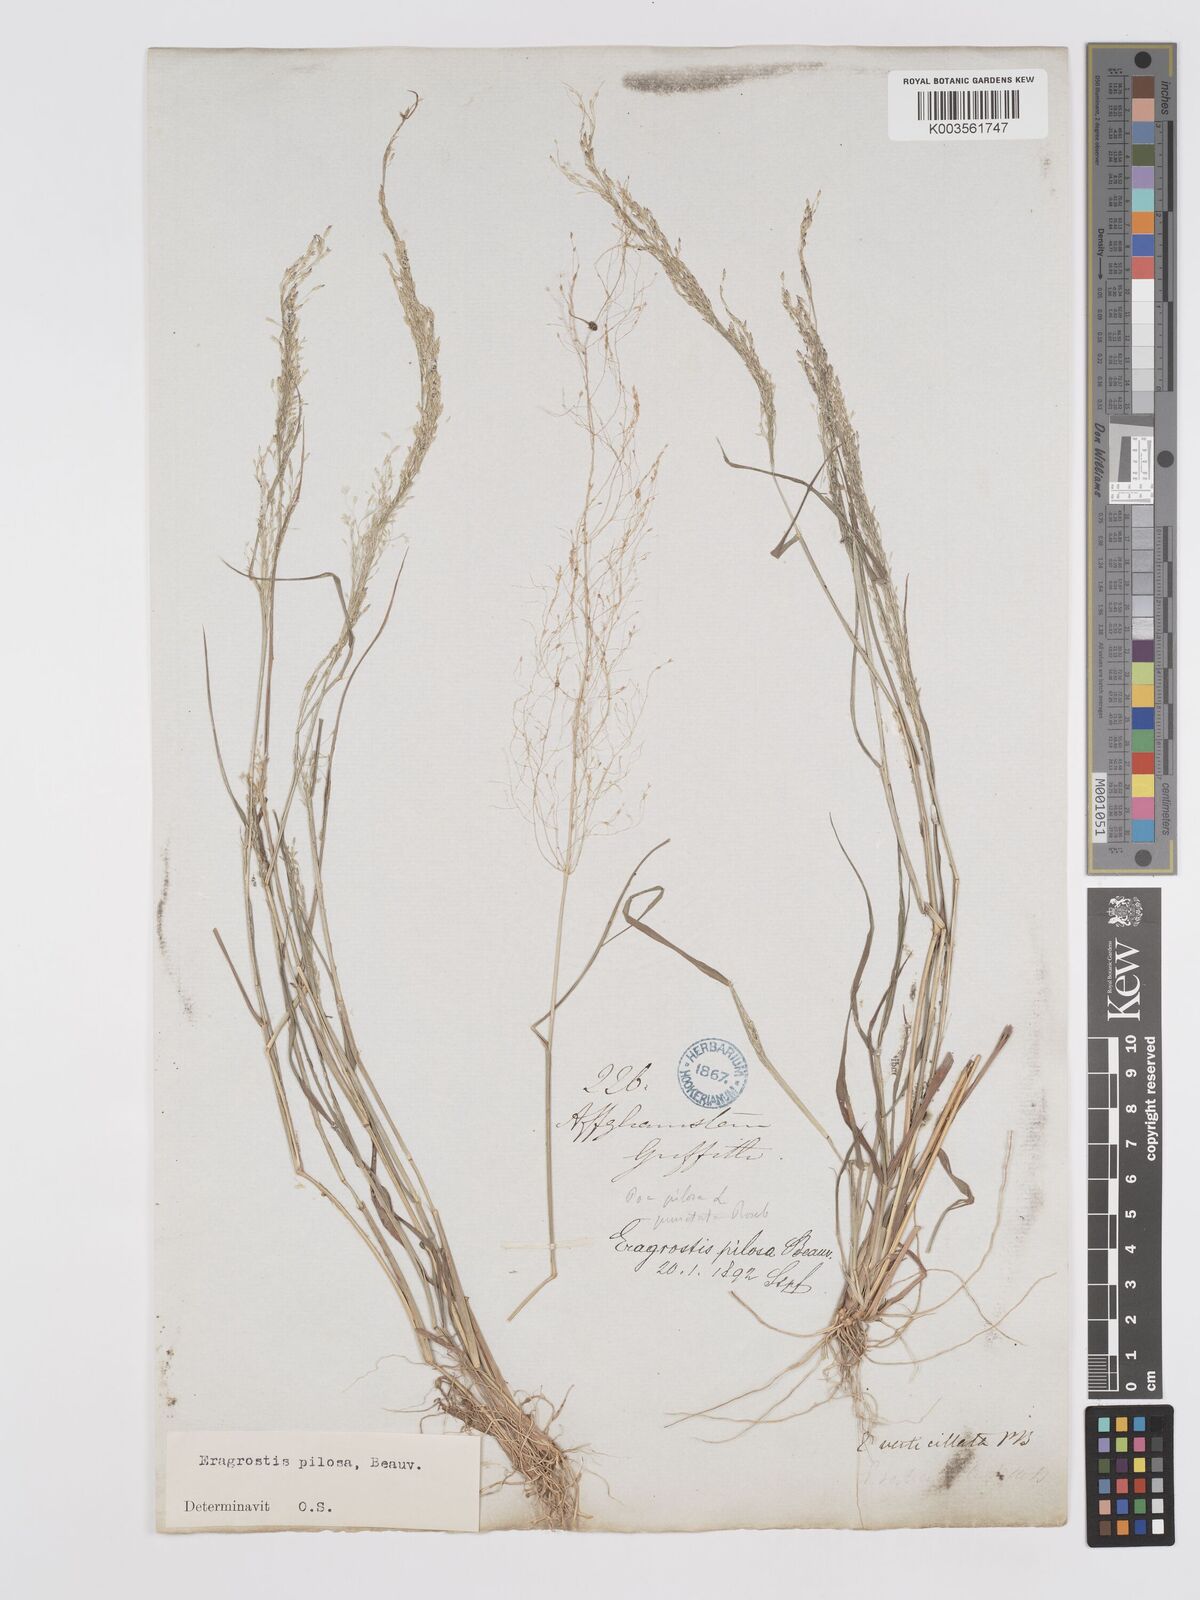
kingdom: Plantae
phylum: Tracheophyta
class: Liliopsida
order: Poales
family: Poaceae
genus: Eragrostis
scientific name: Eragrostis pilosa
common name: Indian lovegrass
